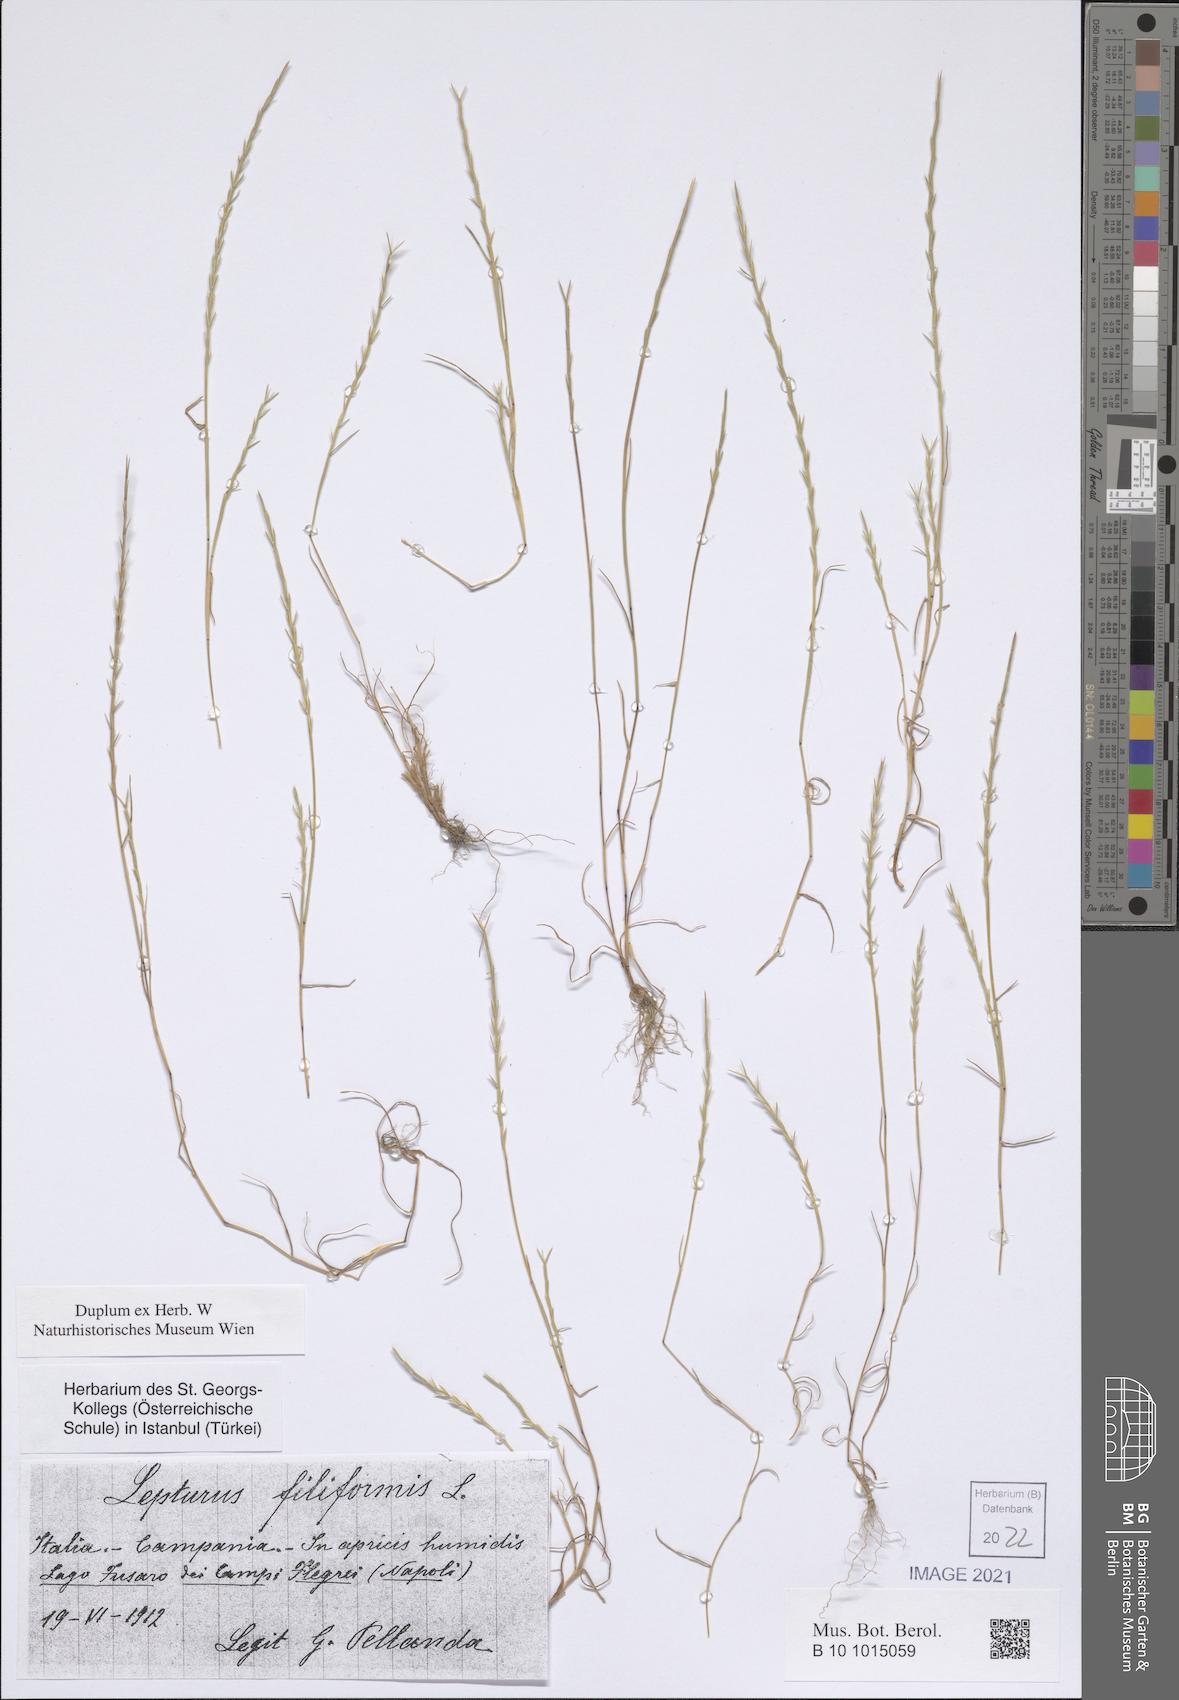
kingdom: Plantae
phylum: Tracheophyta
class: Liliopsida
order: Poales
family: Poaceae
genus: Parapholis
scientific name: Parapholis filiformis
